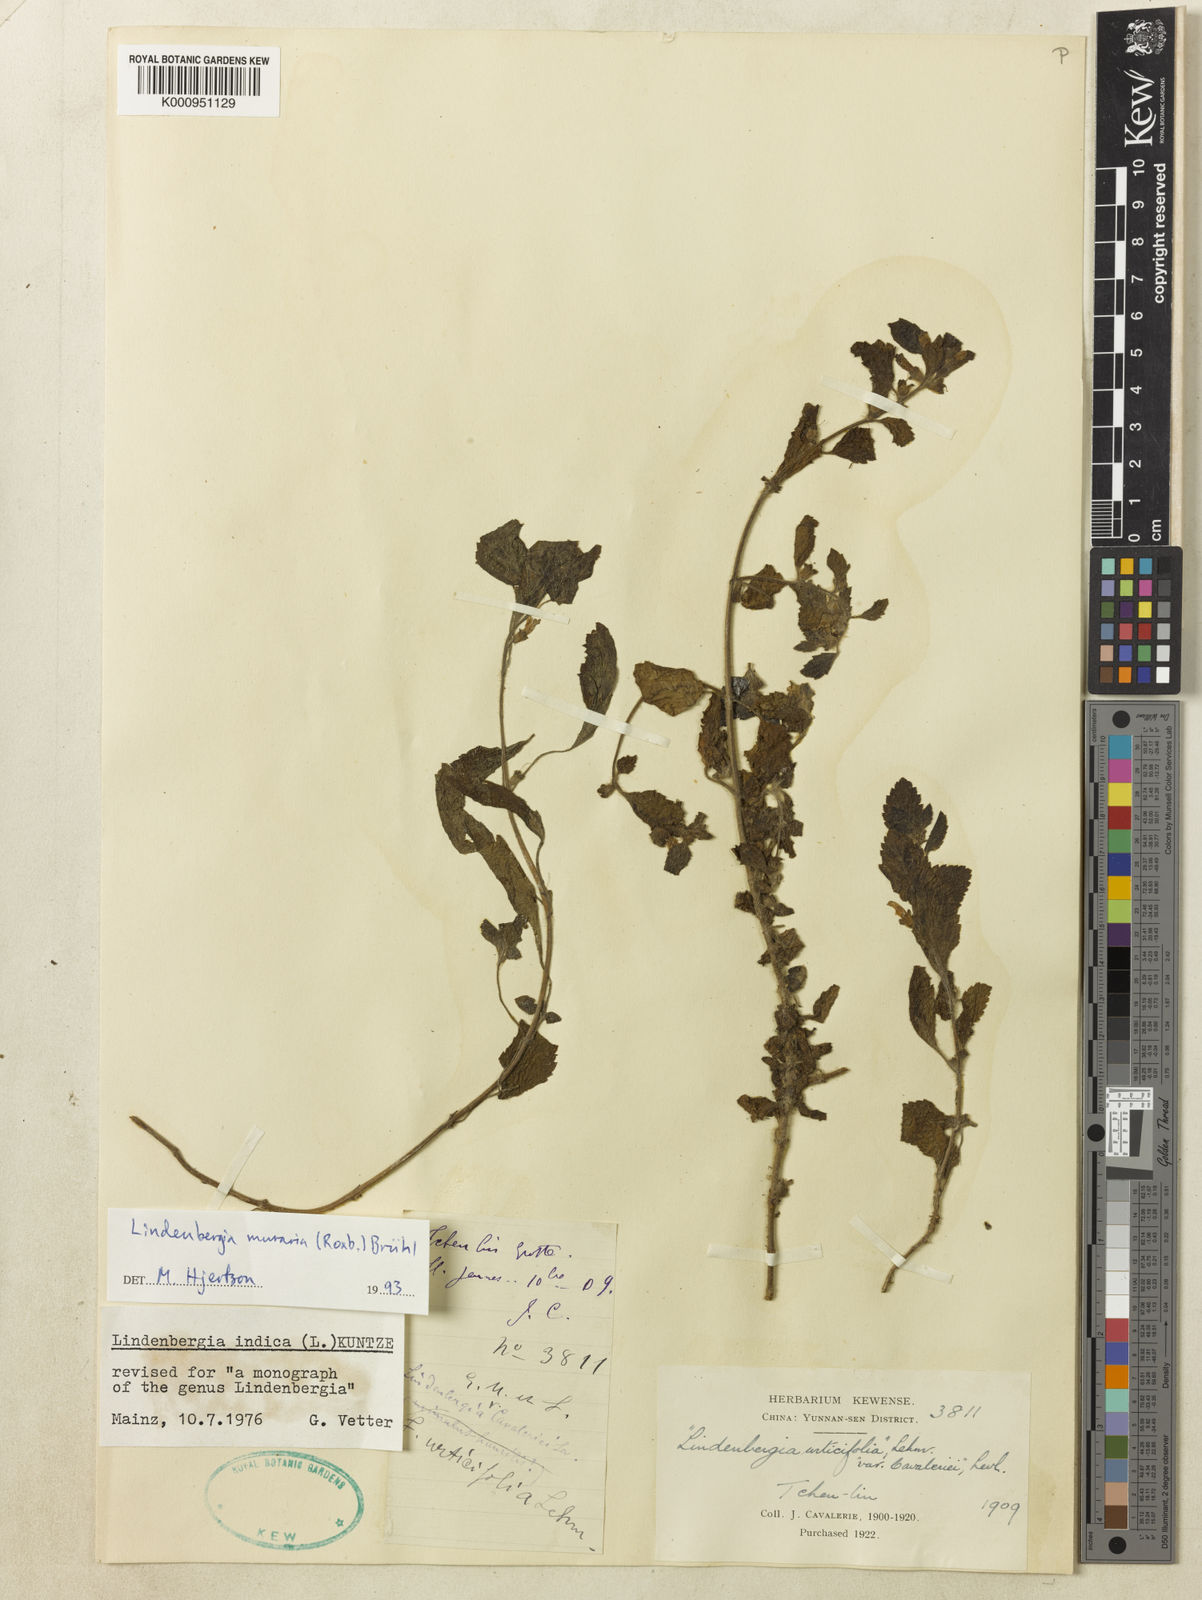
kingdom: Plantae
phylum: Tracheophyta
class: Magnoliopsida
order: Lamiales
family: Orobanchaceae
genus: Lindenbergia
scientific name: Lindenbergia
